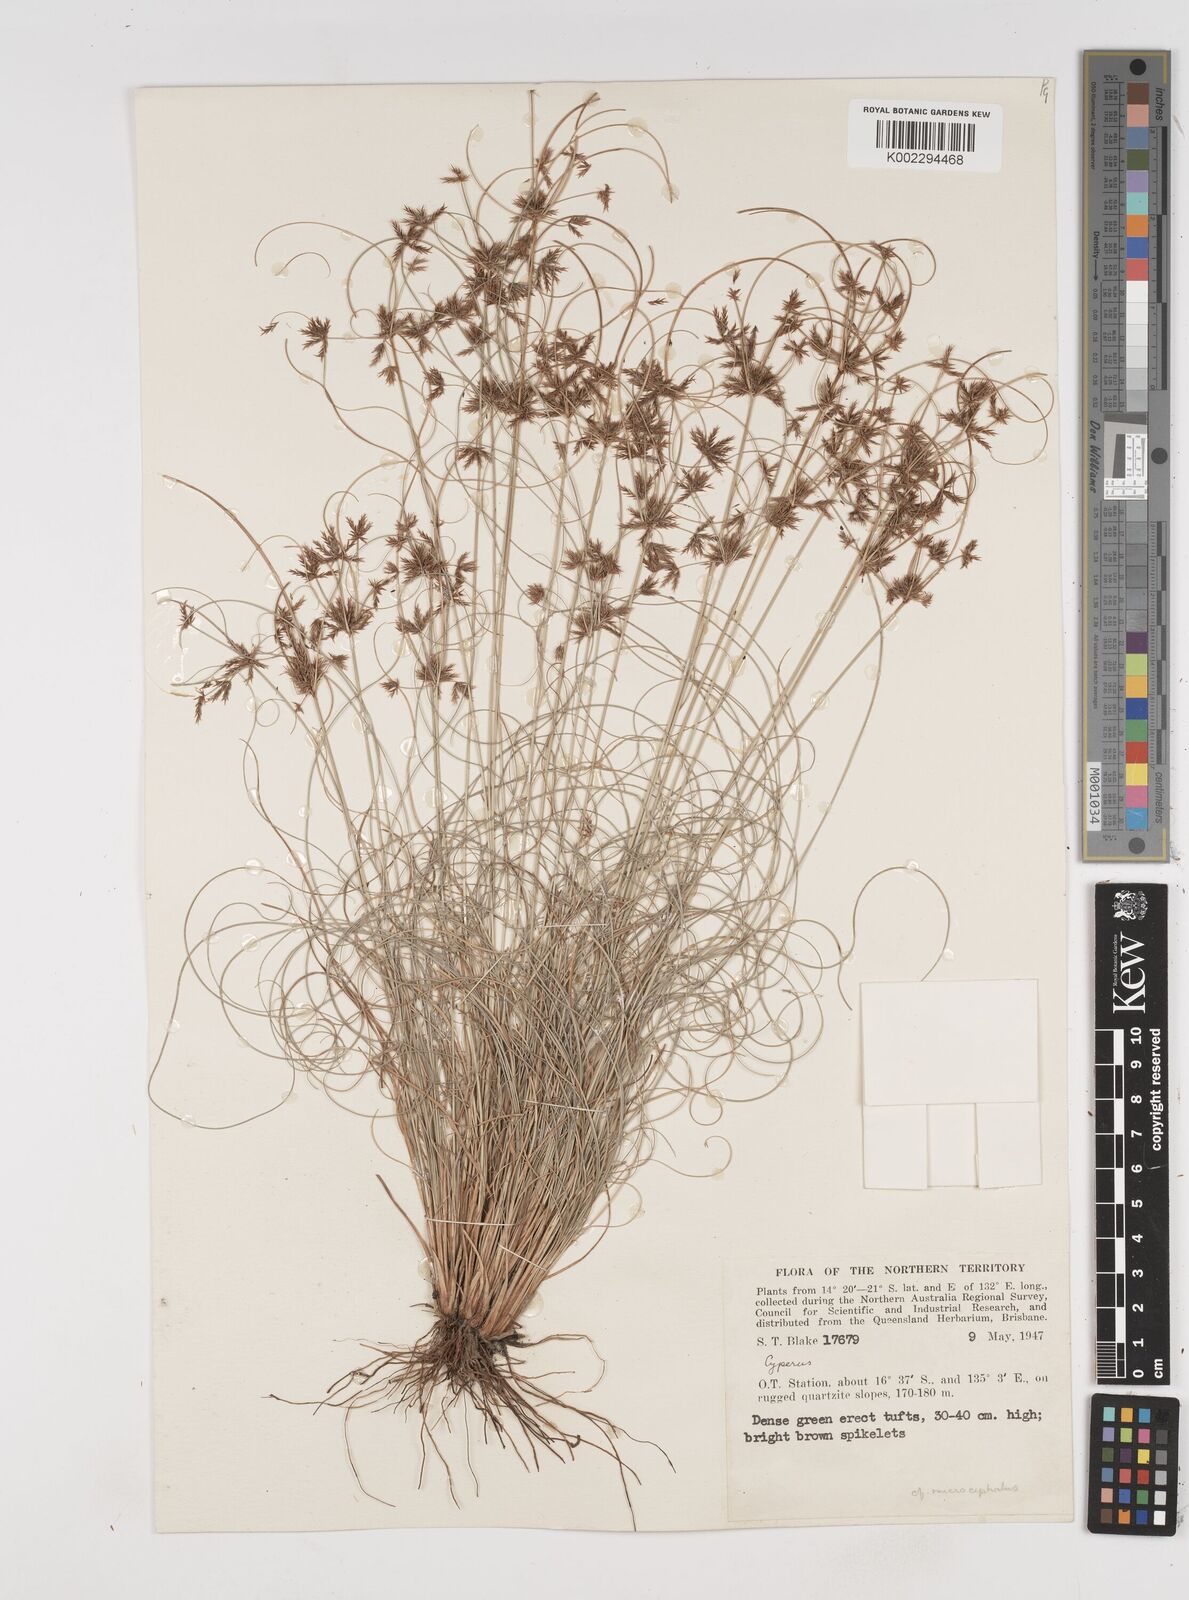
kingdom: Plantae
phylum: Tracheophyta
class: Liliopsida
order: Poales
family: Cyperaceae
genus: Cyperus
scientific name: Cyperus microcephalus
